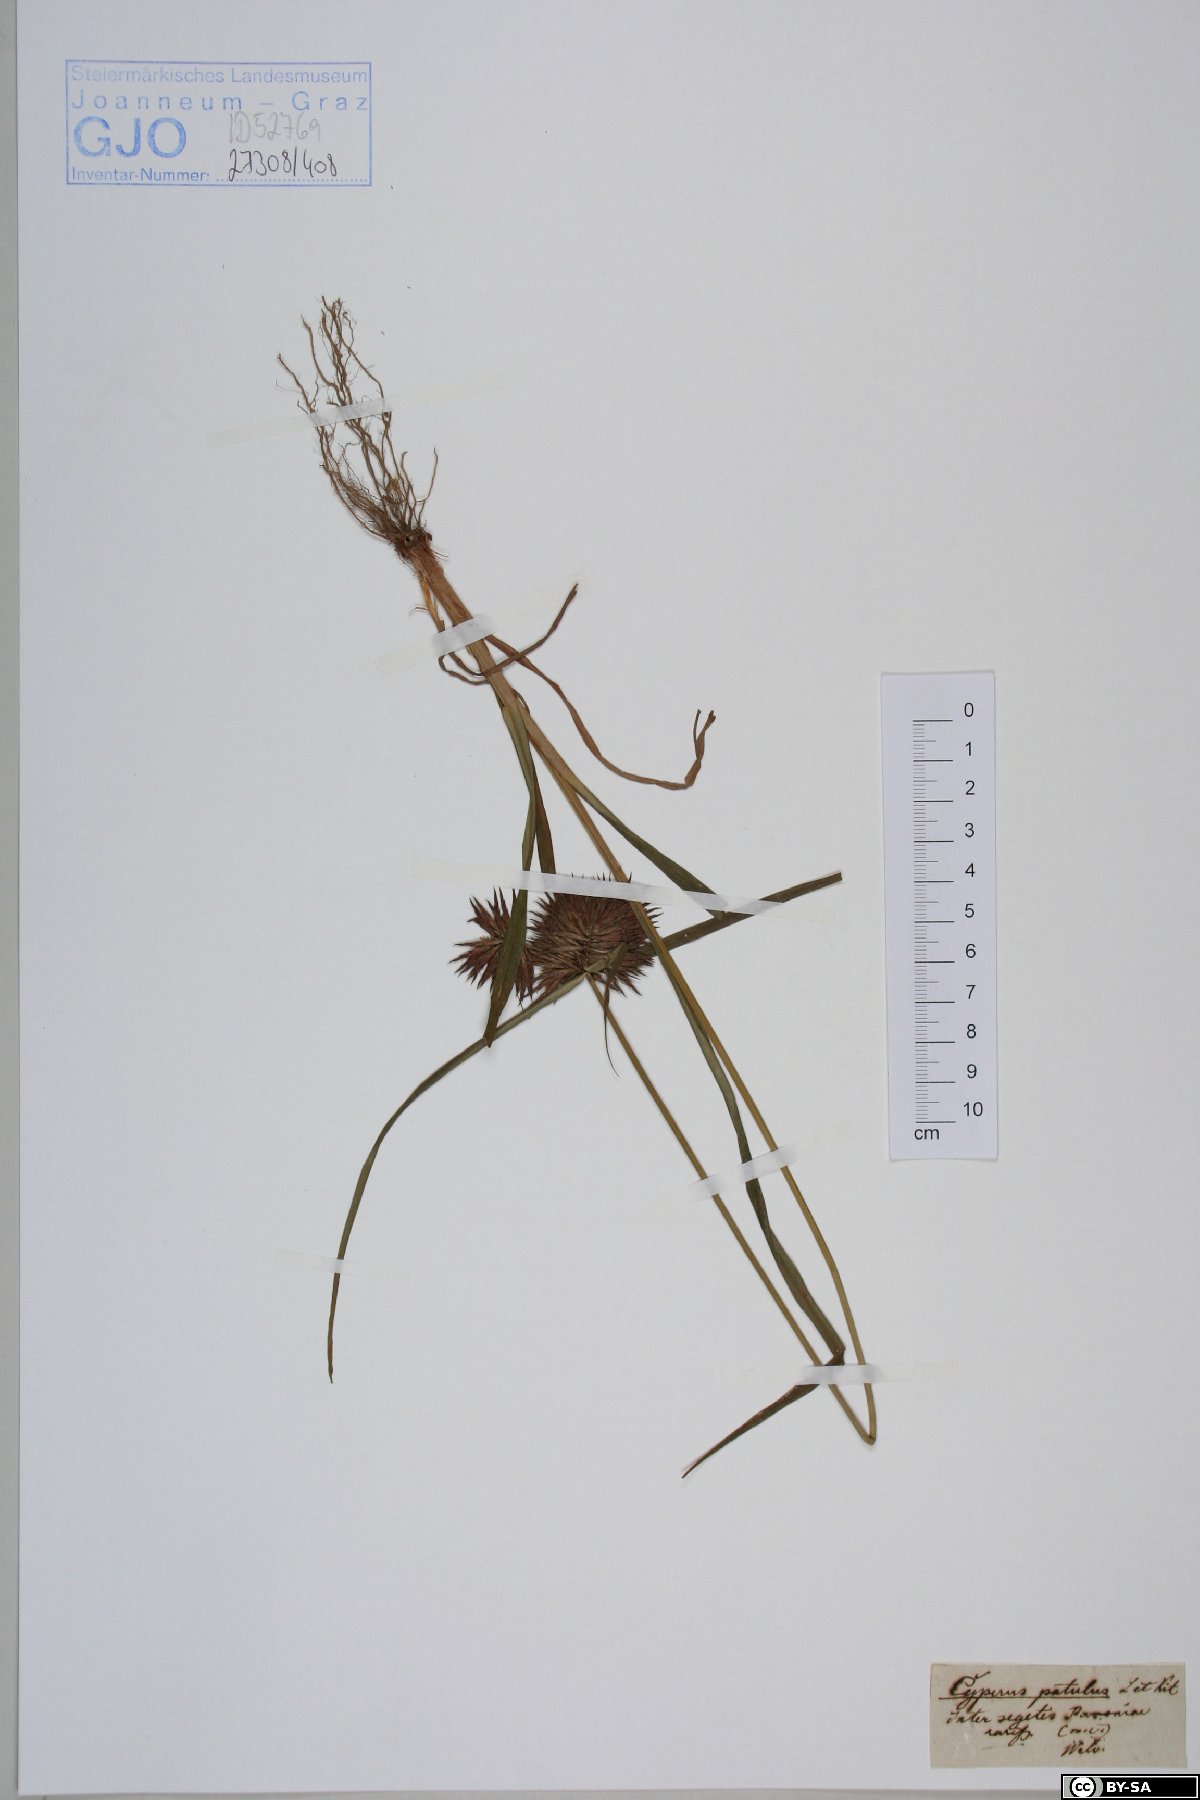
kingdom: Plantae
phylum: Tracheophyta
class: Liliopsida
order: Poales
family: Cyperaceae
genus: Cyperus
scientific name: Cyperus glaber
